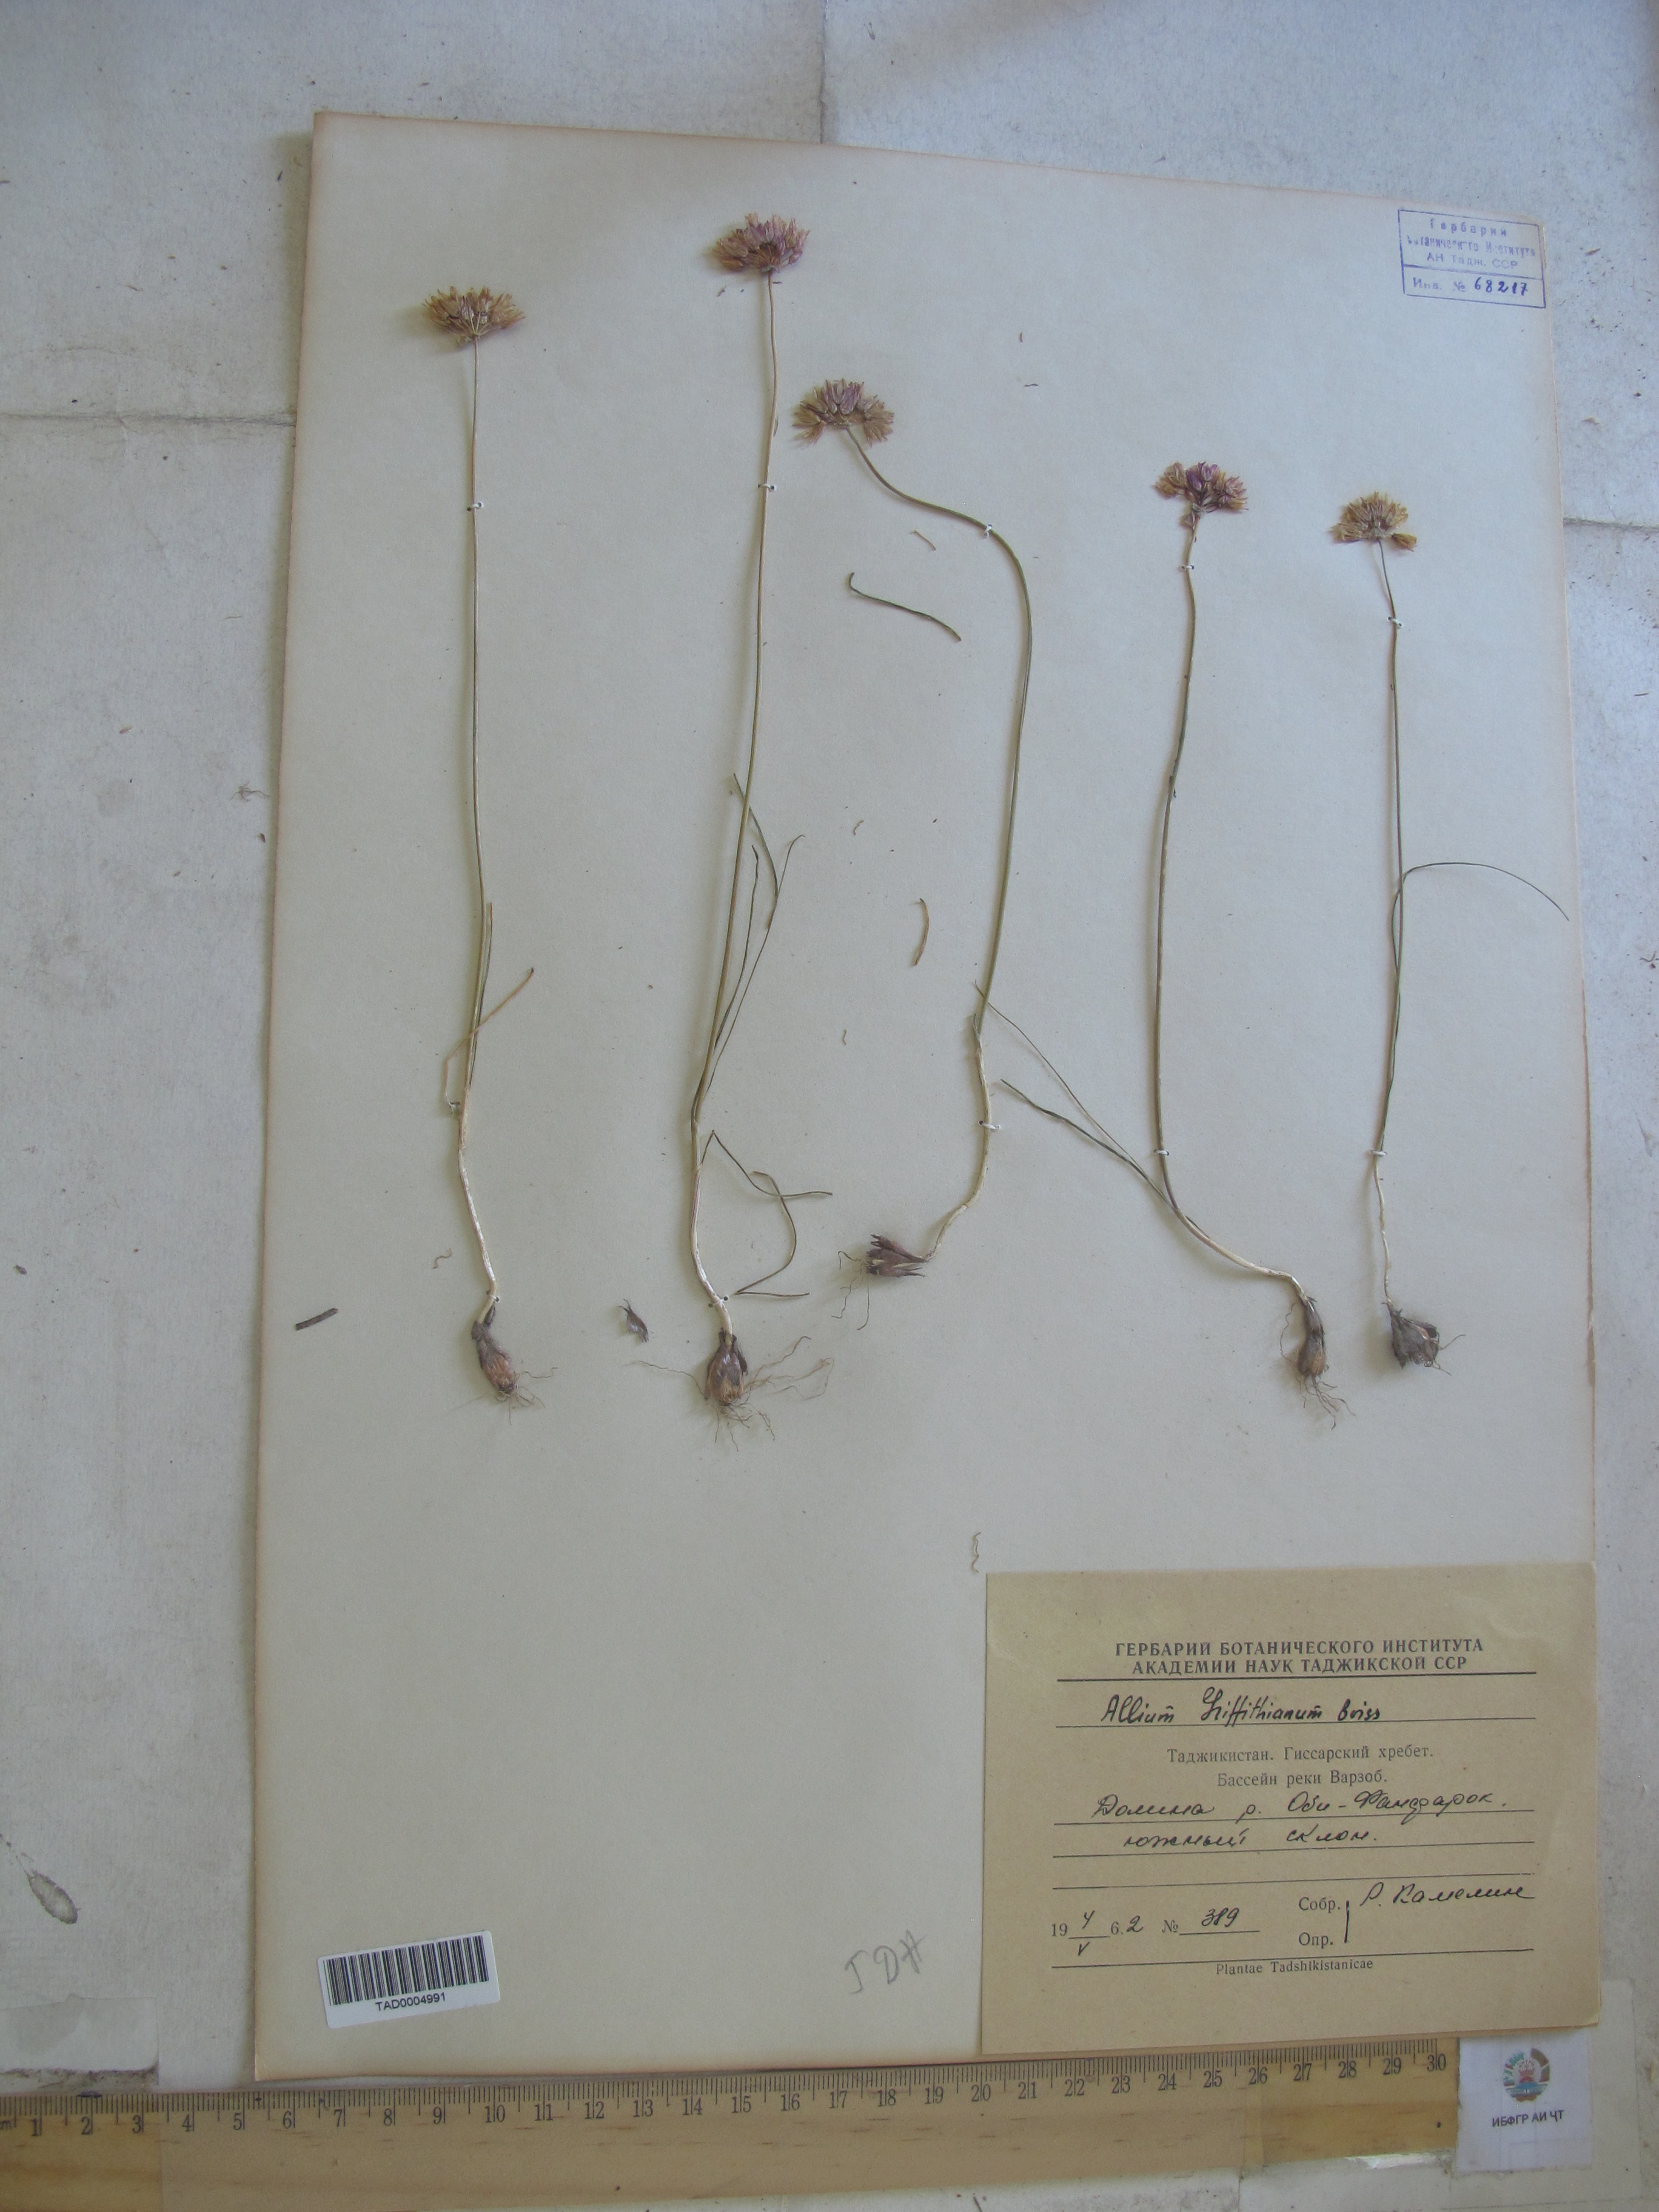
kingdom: Plantae
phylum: Tracheophyta
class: Liliopsida
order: Asparagales
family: Amaryllidaceae
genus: Allium
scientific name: Allium griffithianum
